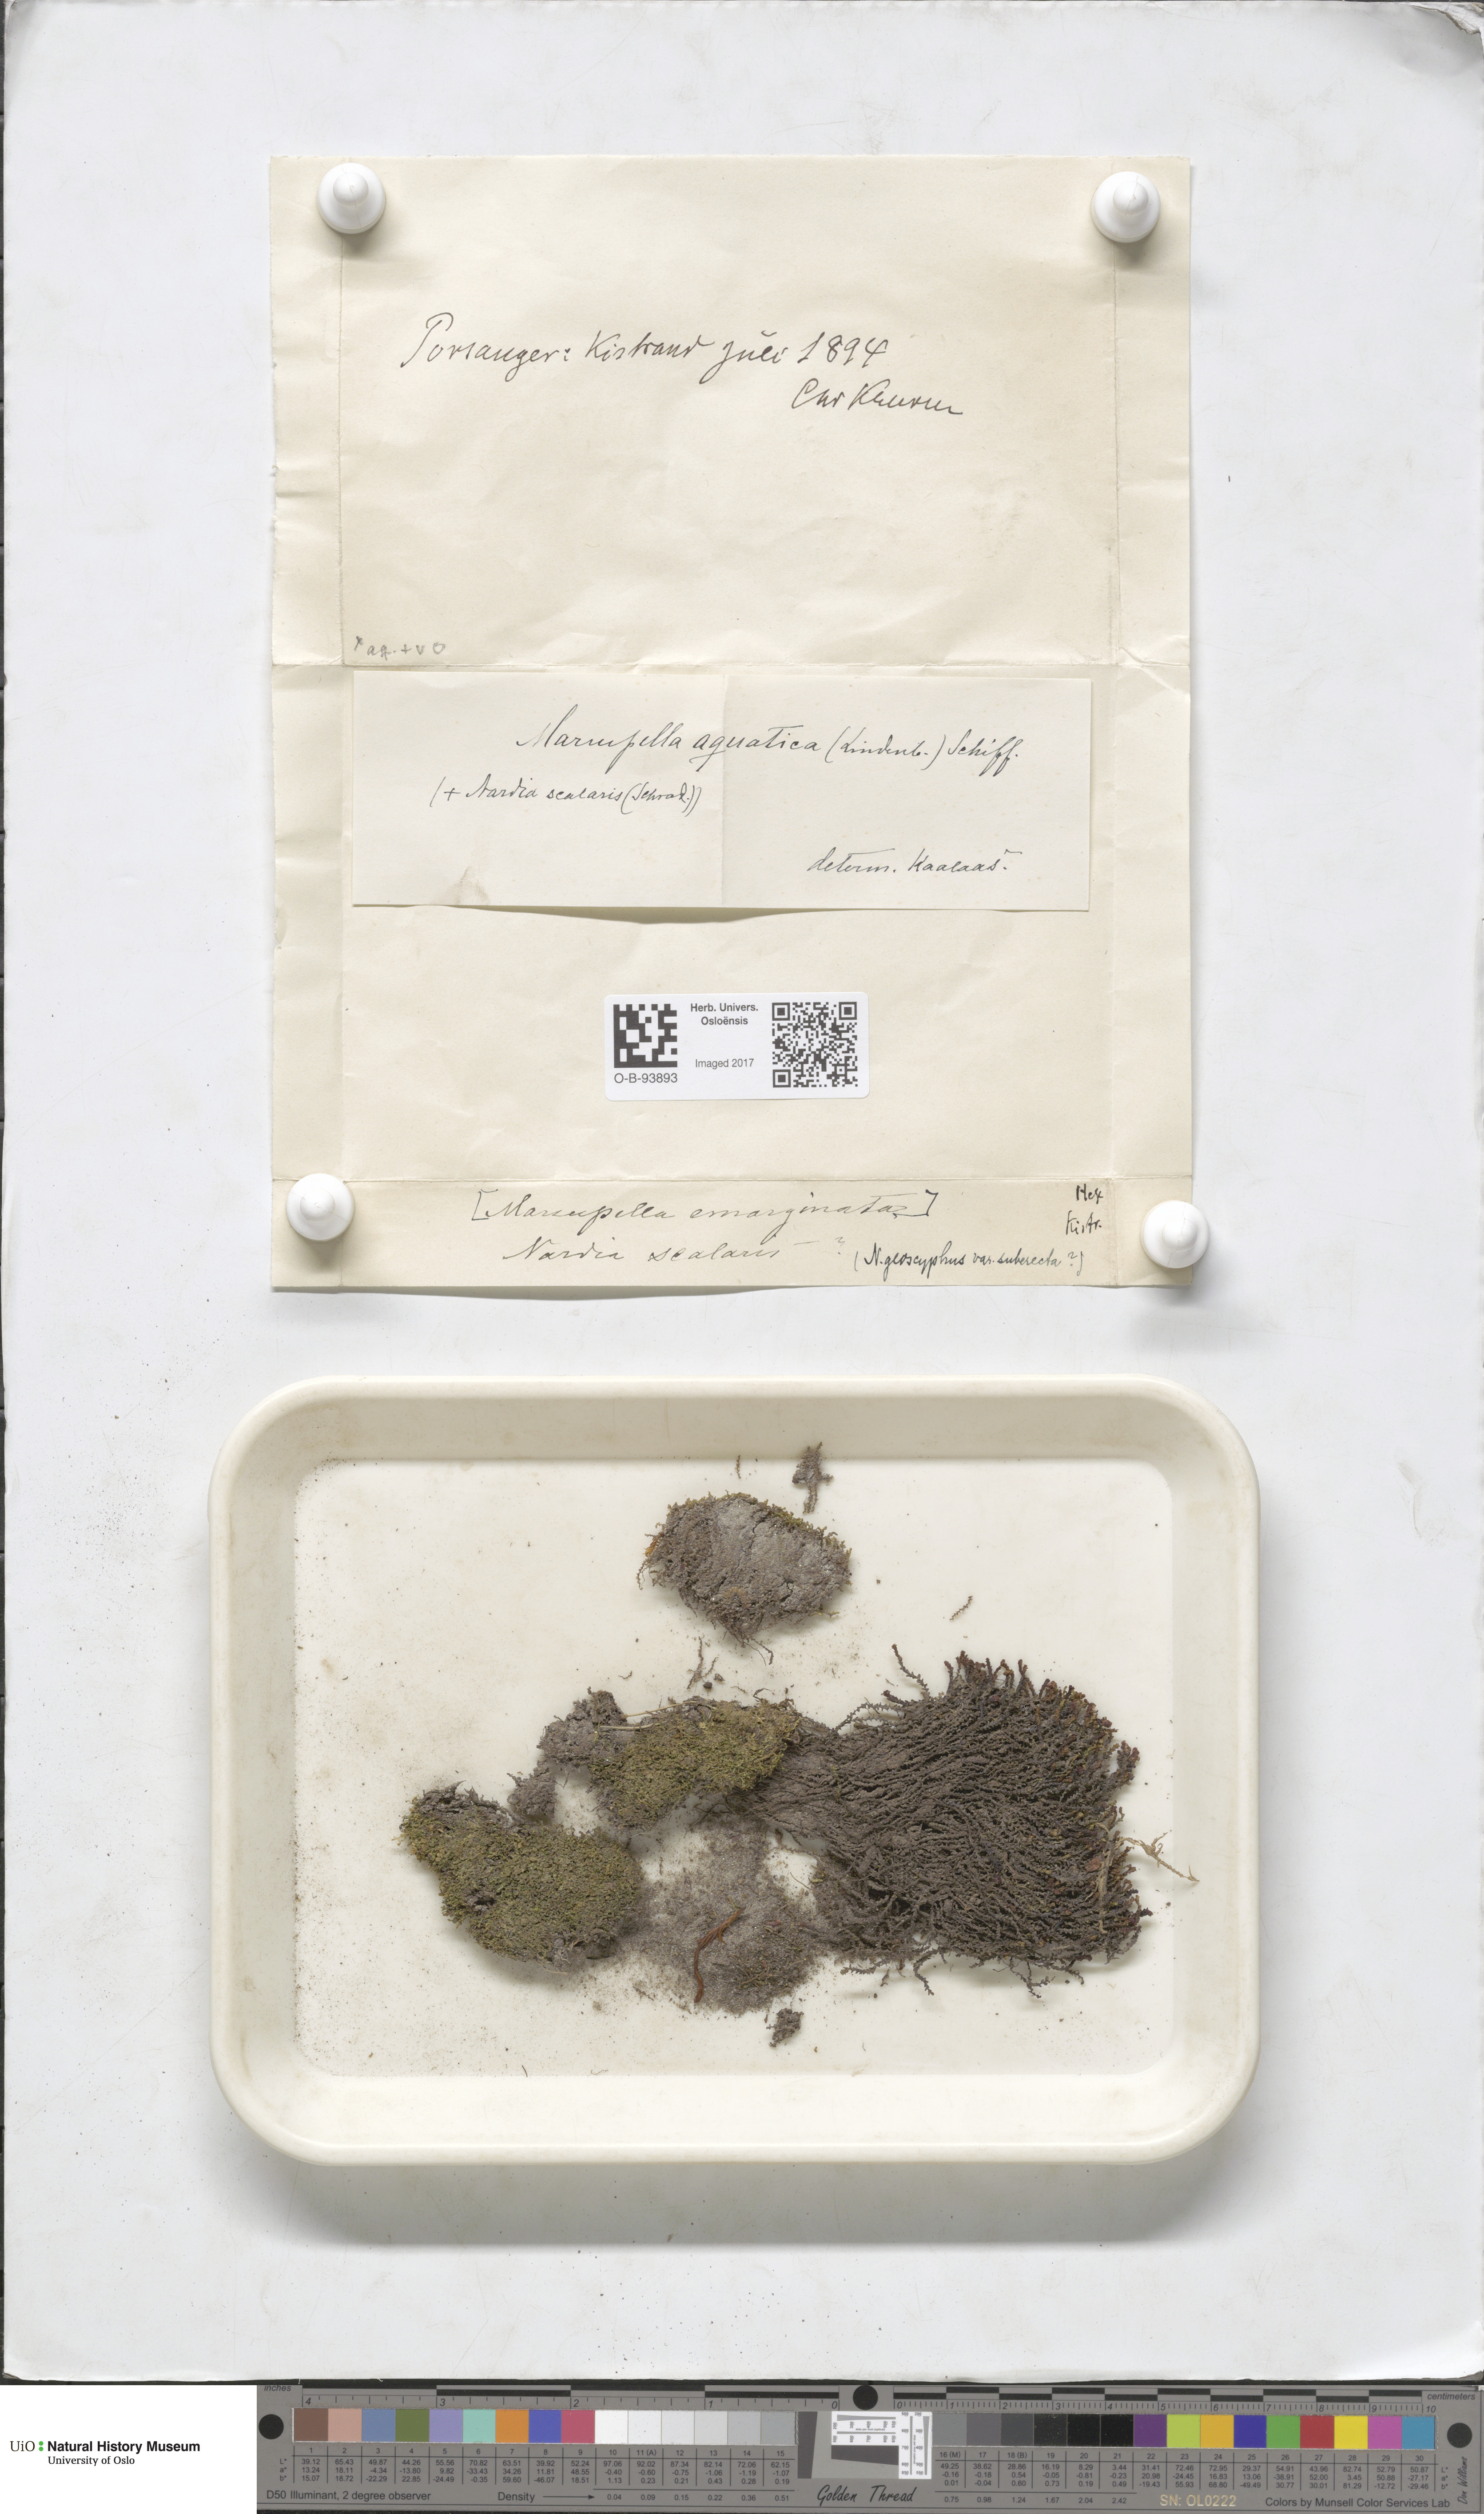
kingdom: Plantae
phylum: Marchantiophyta
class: Jungermanniopsida
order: Jungermanniales
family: Gymnomitriaceae
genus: Marsupella
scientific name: Marsupella emarginata
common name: Notched rustwort
